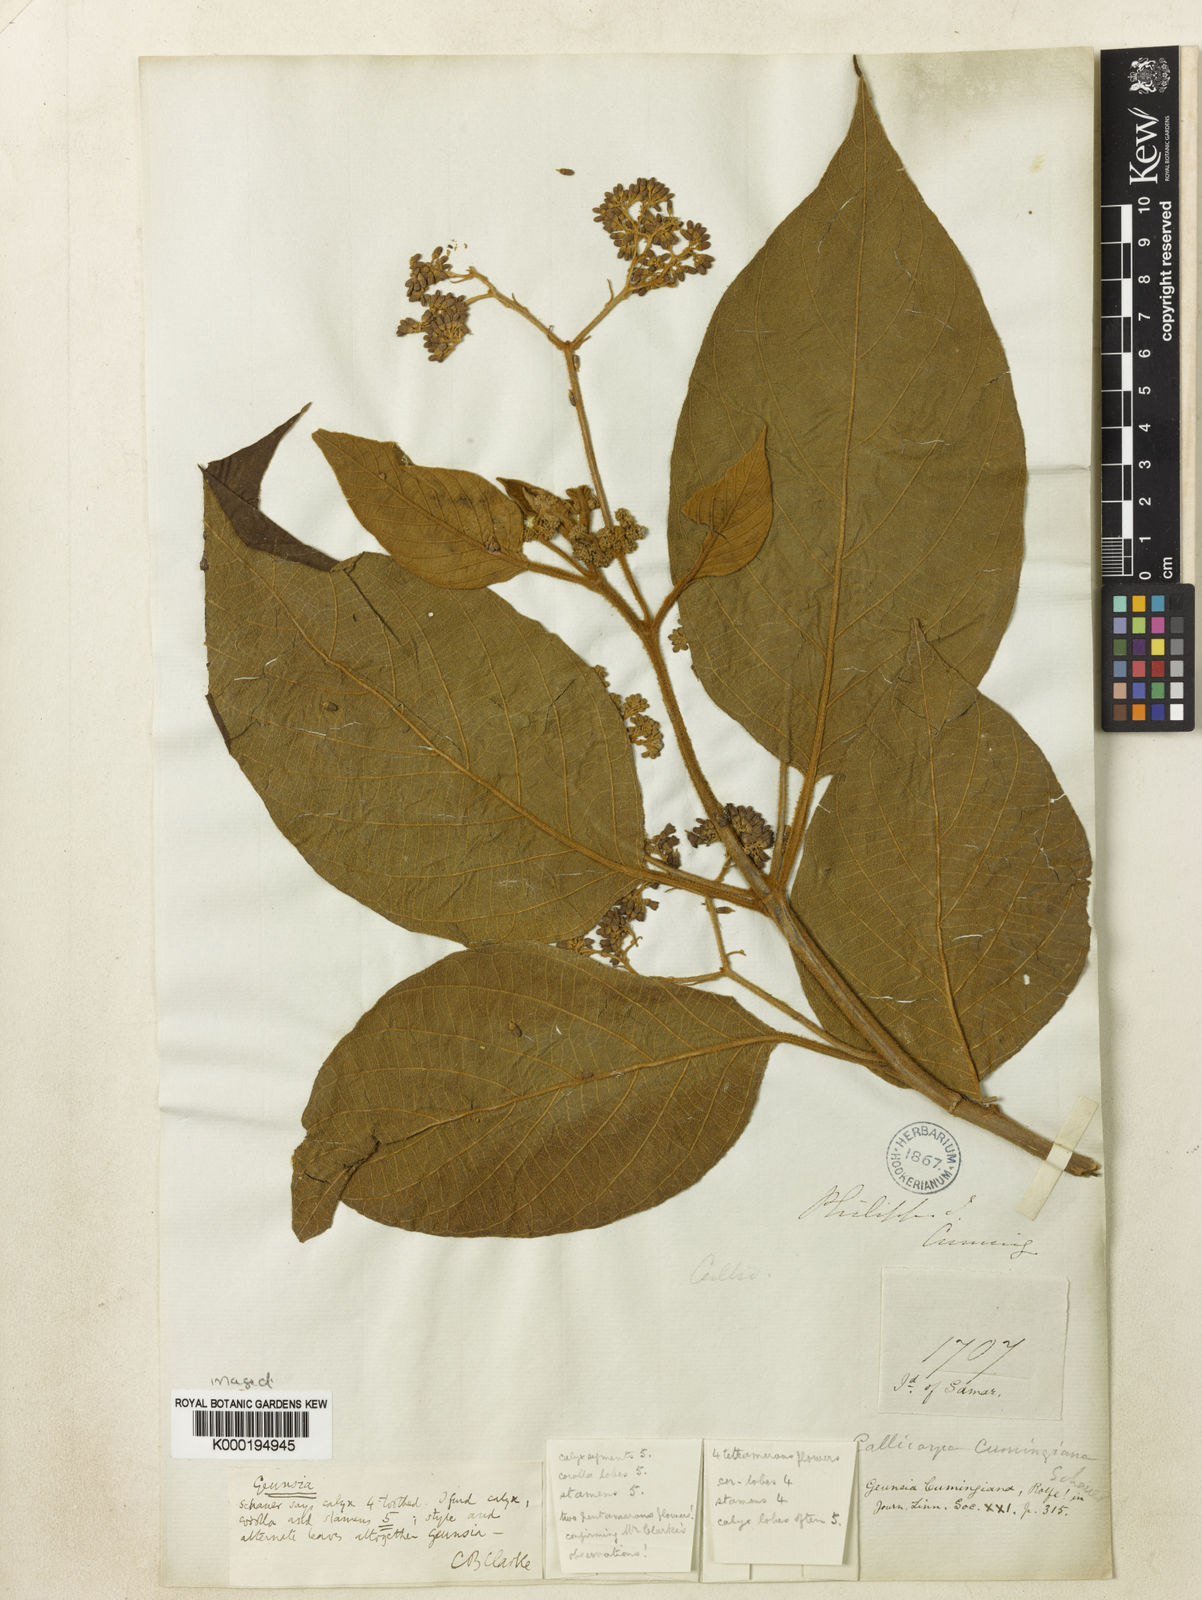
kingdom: Plantae
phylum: Tracheophyta
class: Magnoliopsida
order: Lamiales
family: Lamiaceae
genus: Callicarpa
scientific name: Callicarpa pentandra
